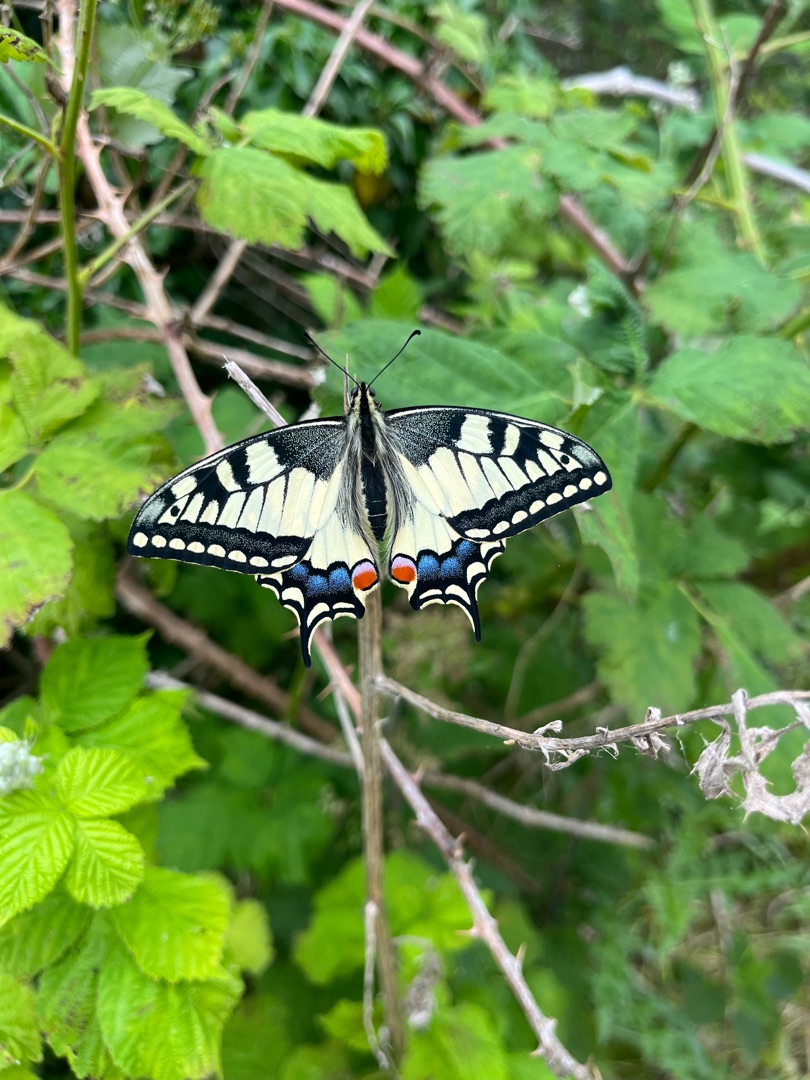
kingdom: Animalia
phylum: Arthropoda
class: Insecta
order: Lepidoptera
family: Papilionidae
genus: Papilio
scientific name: Papilio machaon
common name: Svalehale
